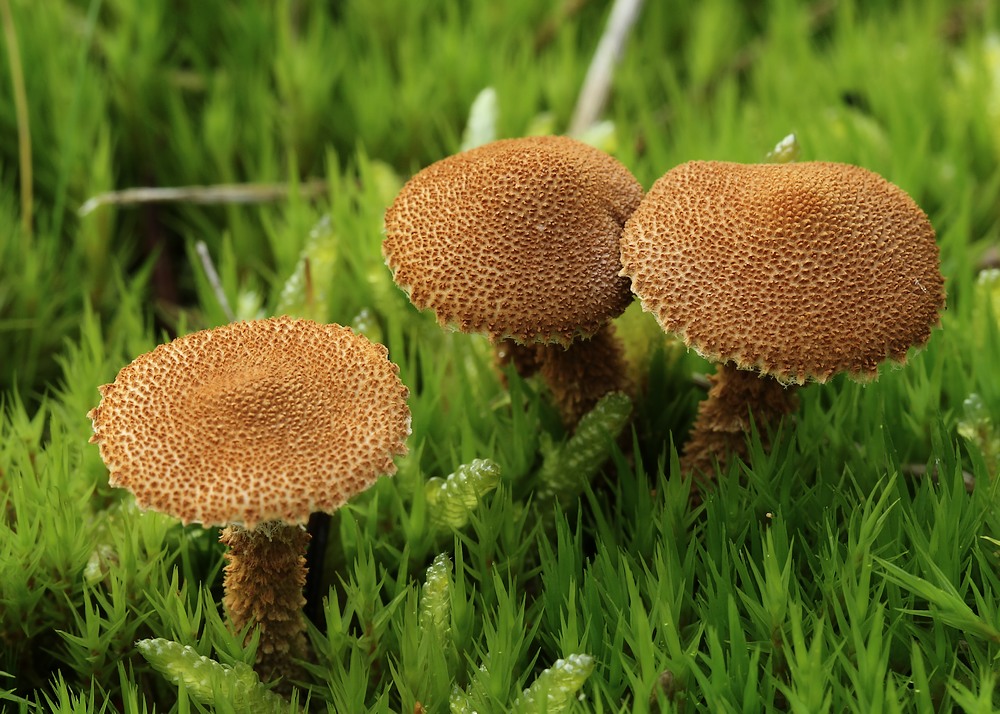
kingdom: Fungi
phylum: Basidiomycota
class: Agaricomycetes
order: Agaricales
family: Tricholomataceae
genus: Cystoderma
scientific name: Cystoderma jasonis
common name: gulkødet grynhat
